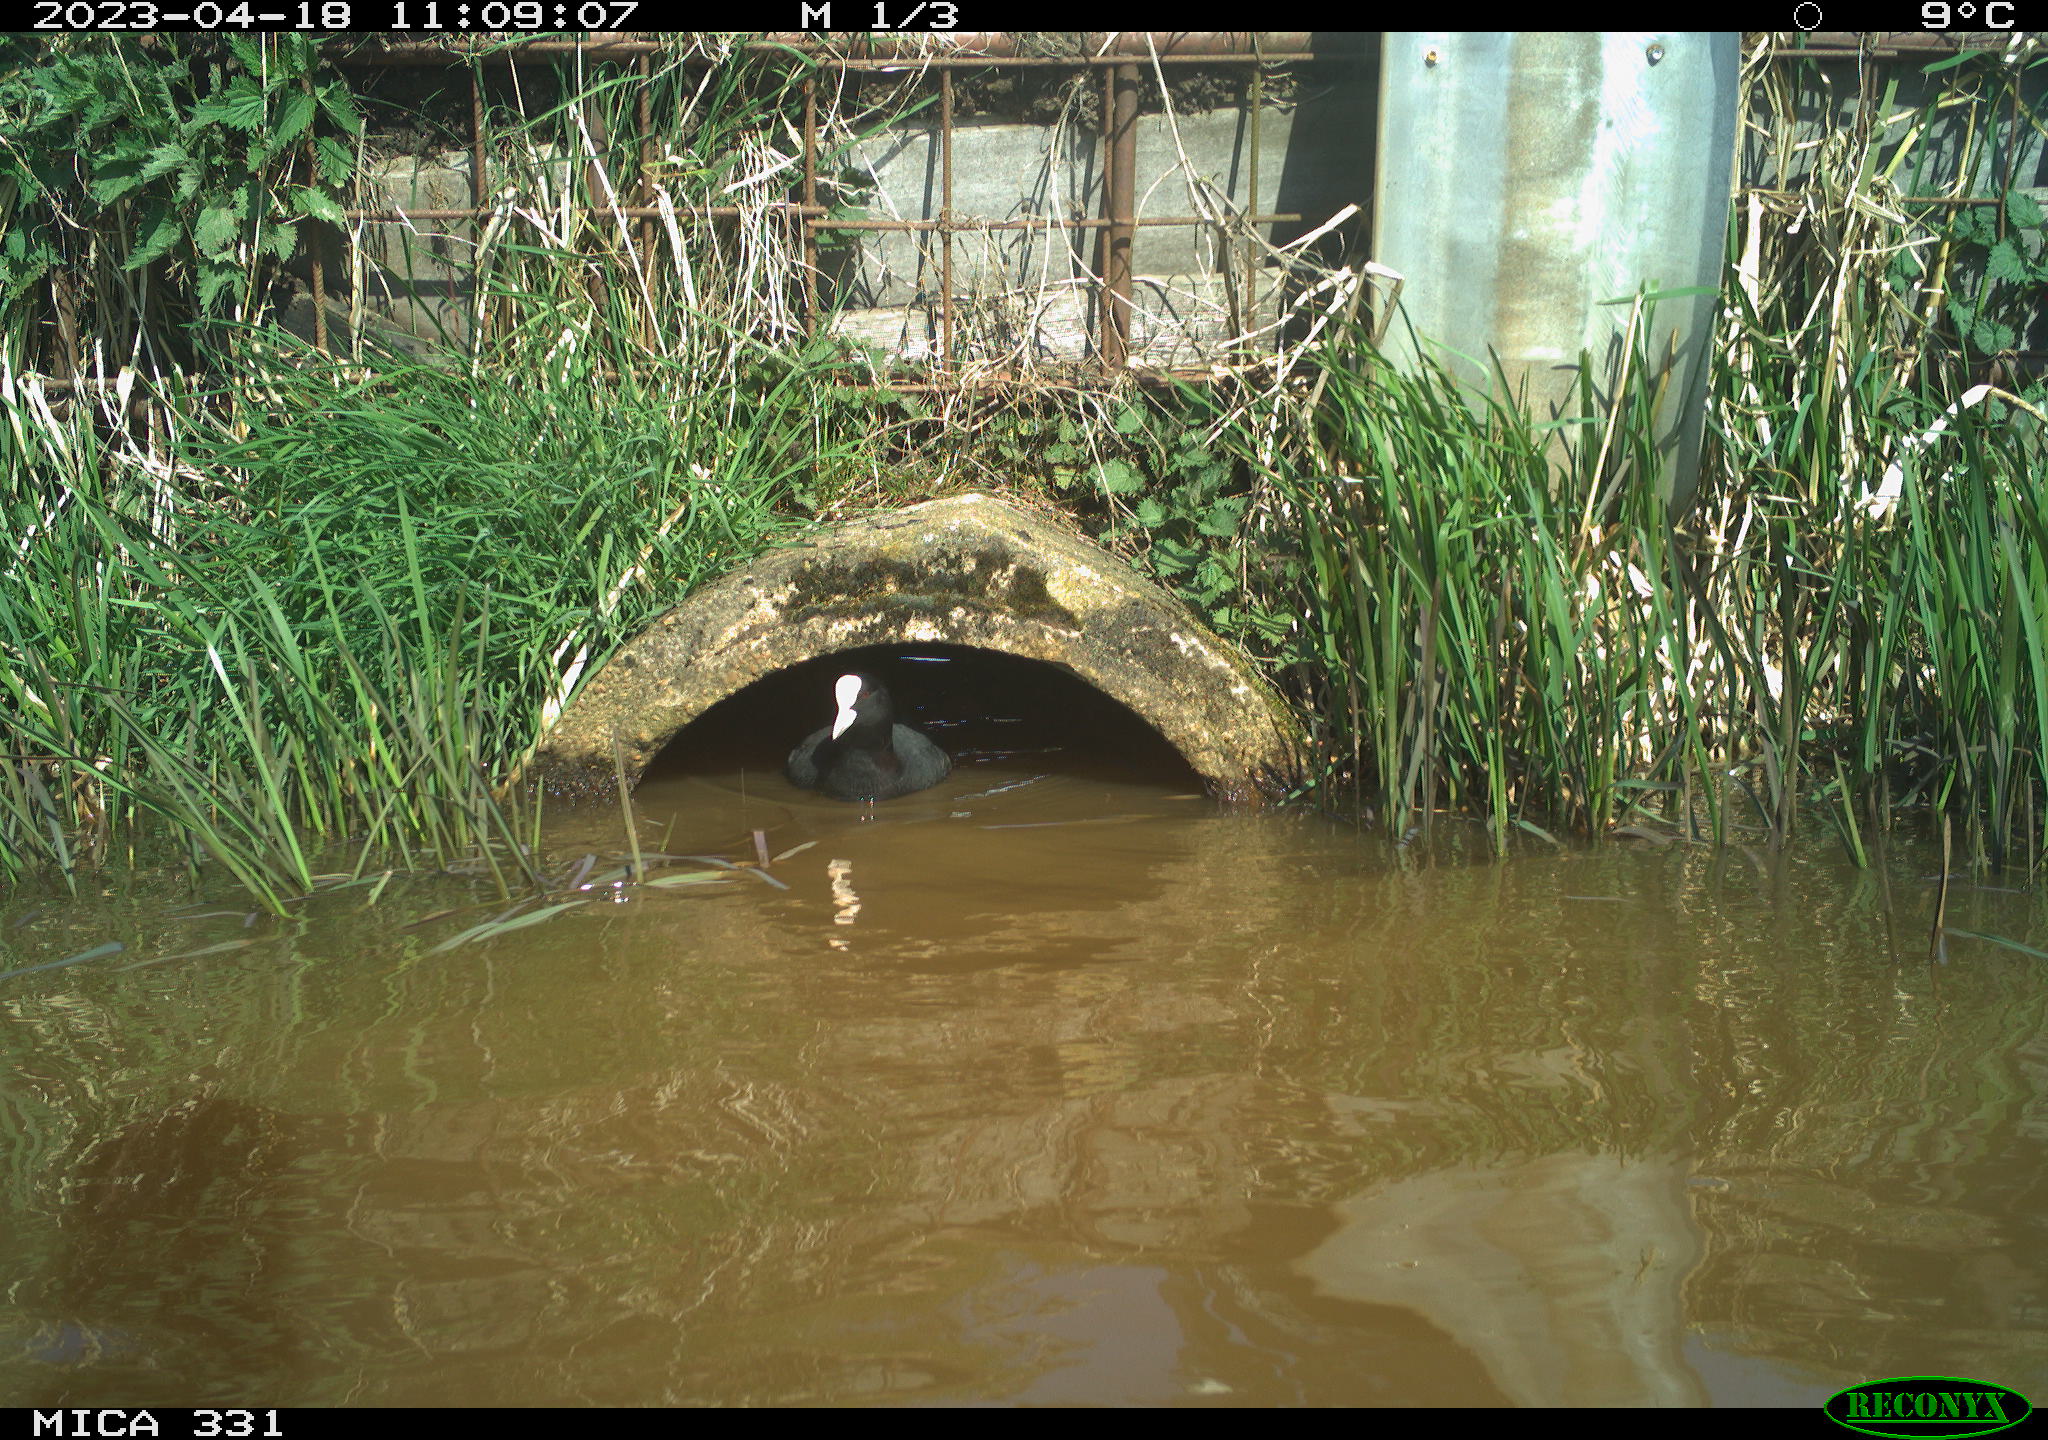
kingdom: Animalia
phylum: Chordata
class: Aves
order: Gruiformes
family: Rallidae
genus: Gallinula
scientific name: Gallinula chloropus
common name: Common moorhen
